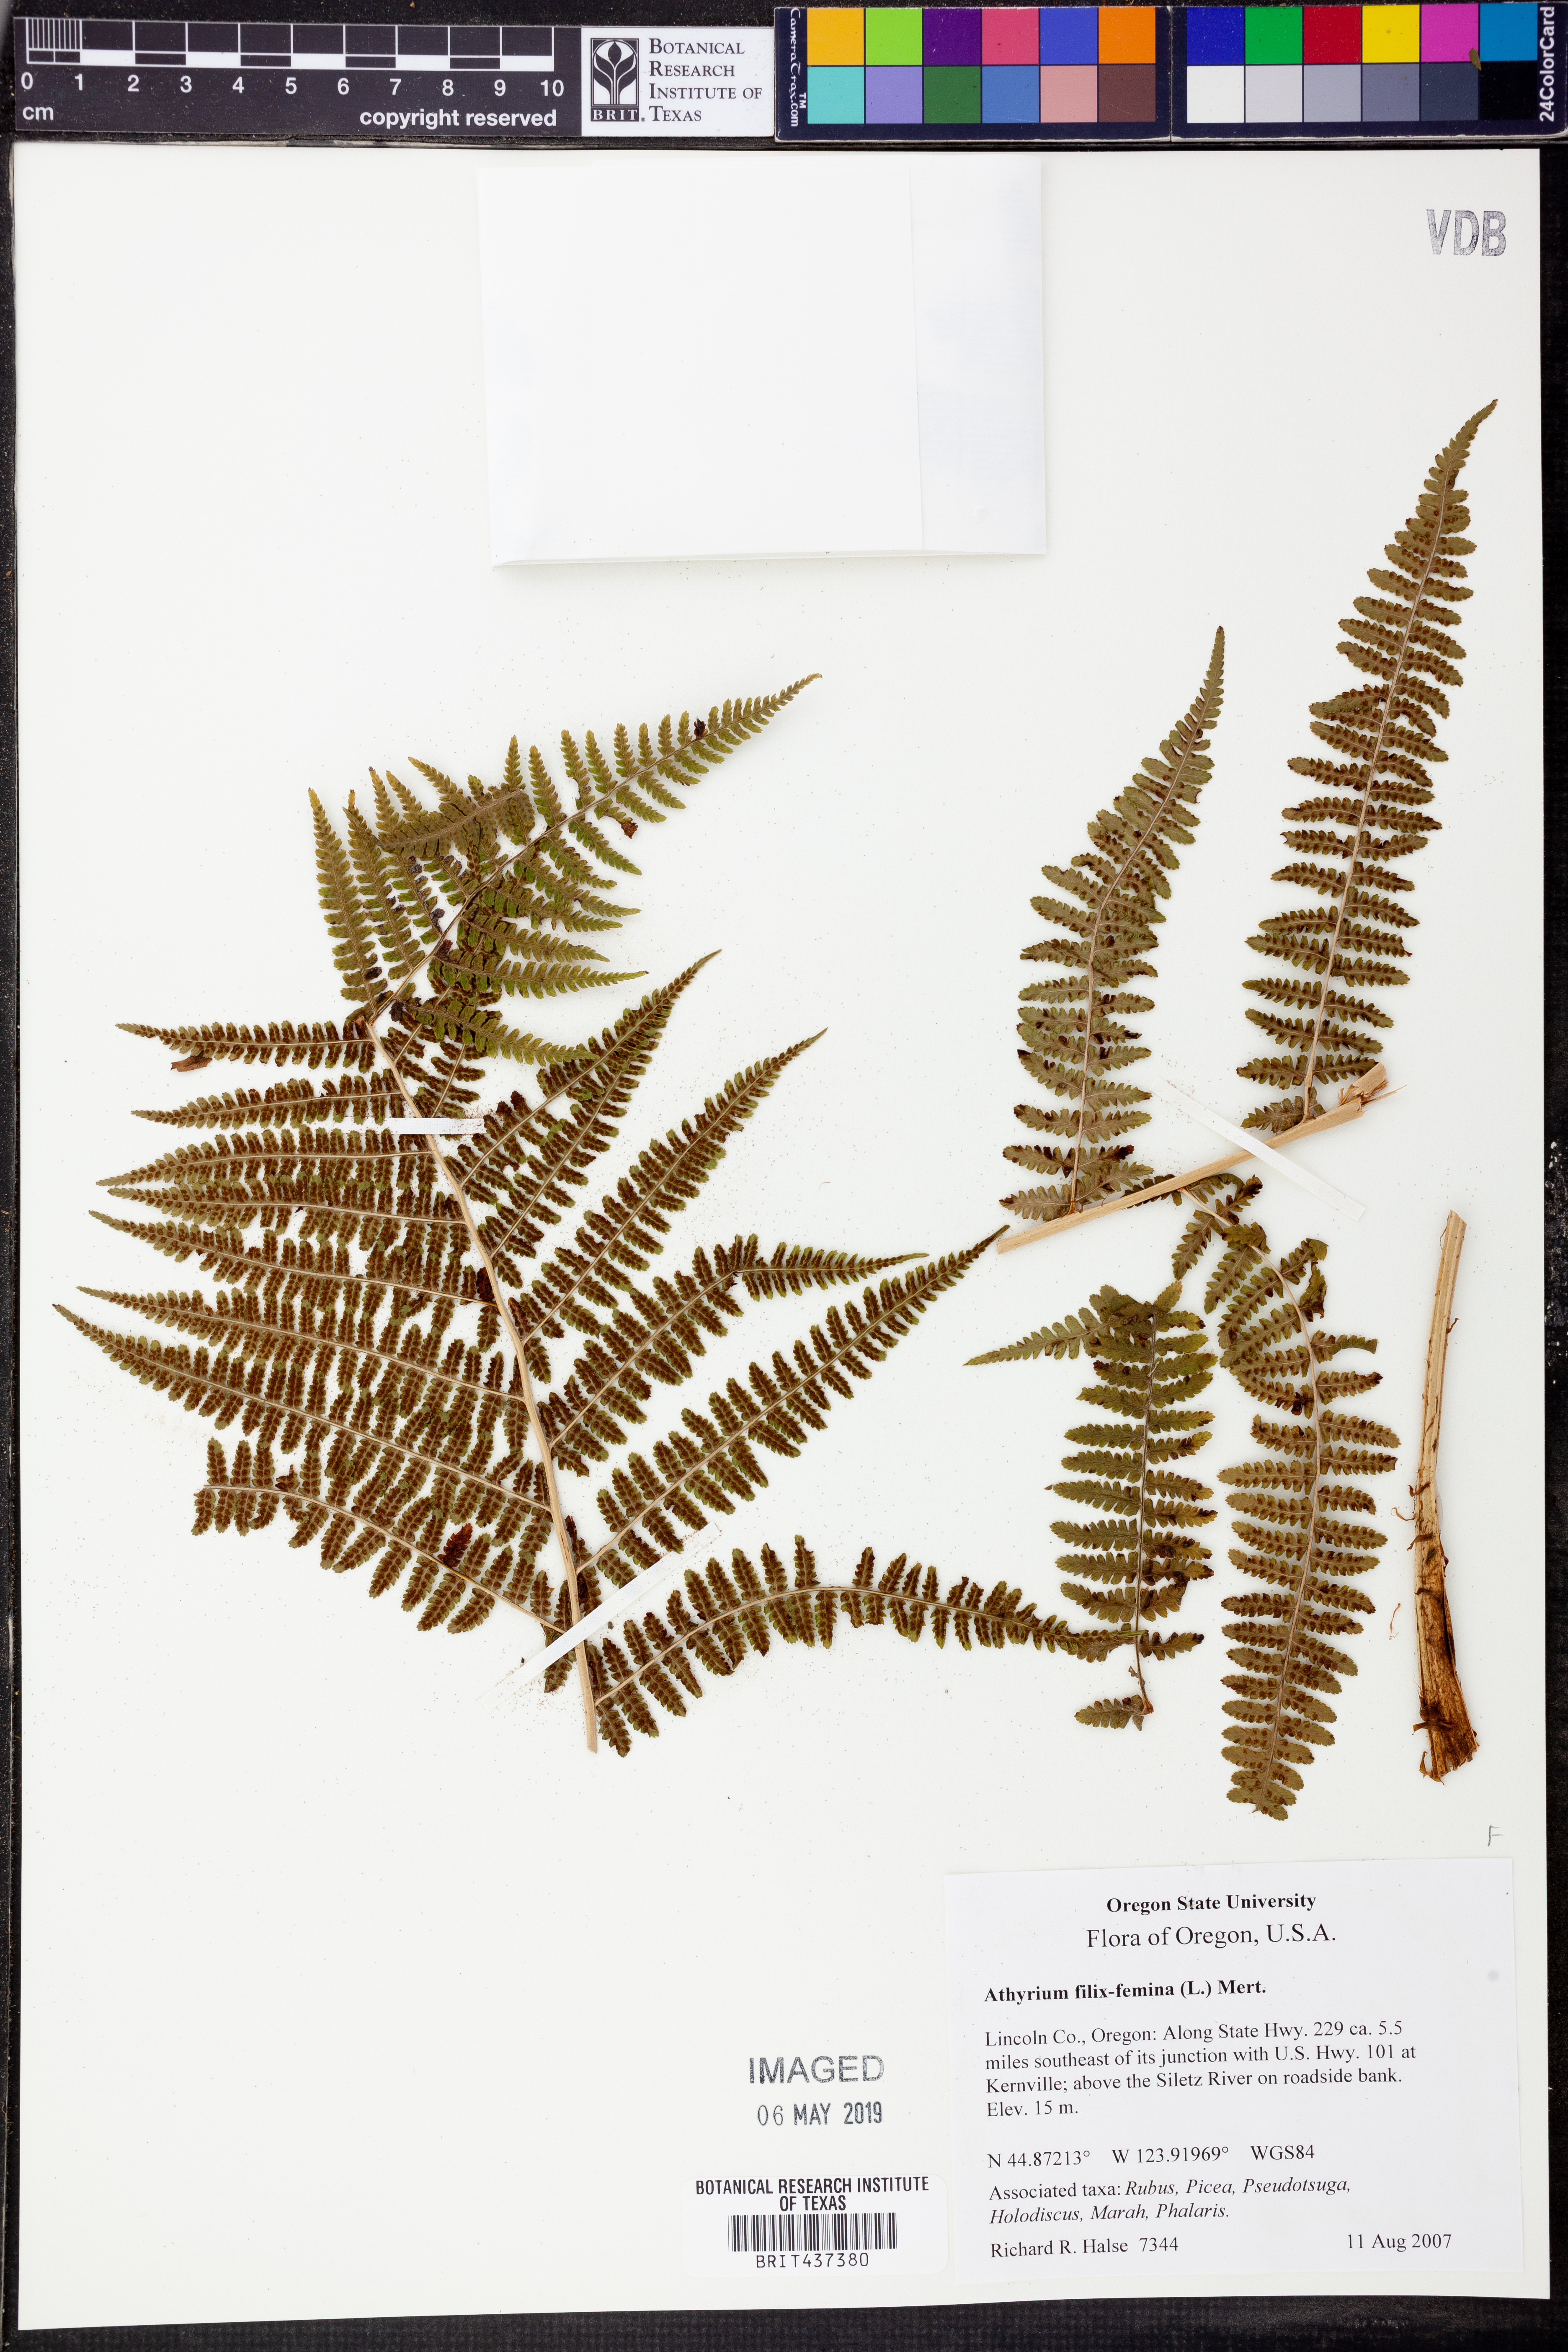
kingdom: Plantae
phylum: Tracheophyta
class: Polypodiopsida
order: Polypodiales
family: Athyriaceae
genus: Athyrium
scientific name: Athyrium filix-femina
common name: Lady fern
